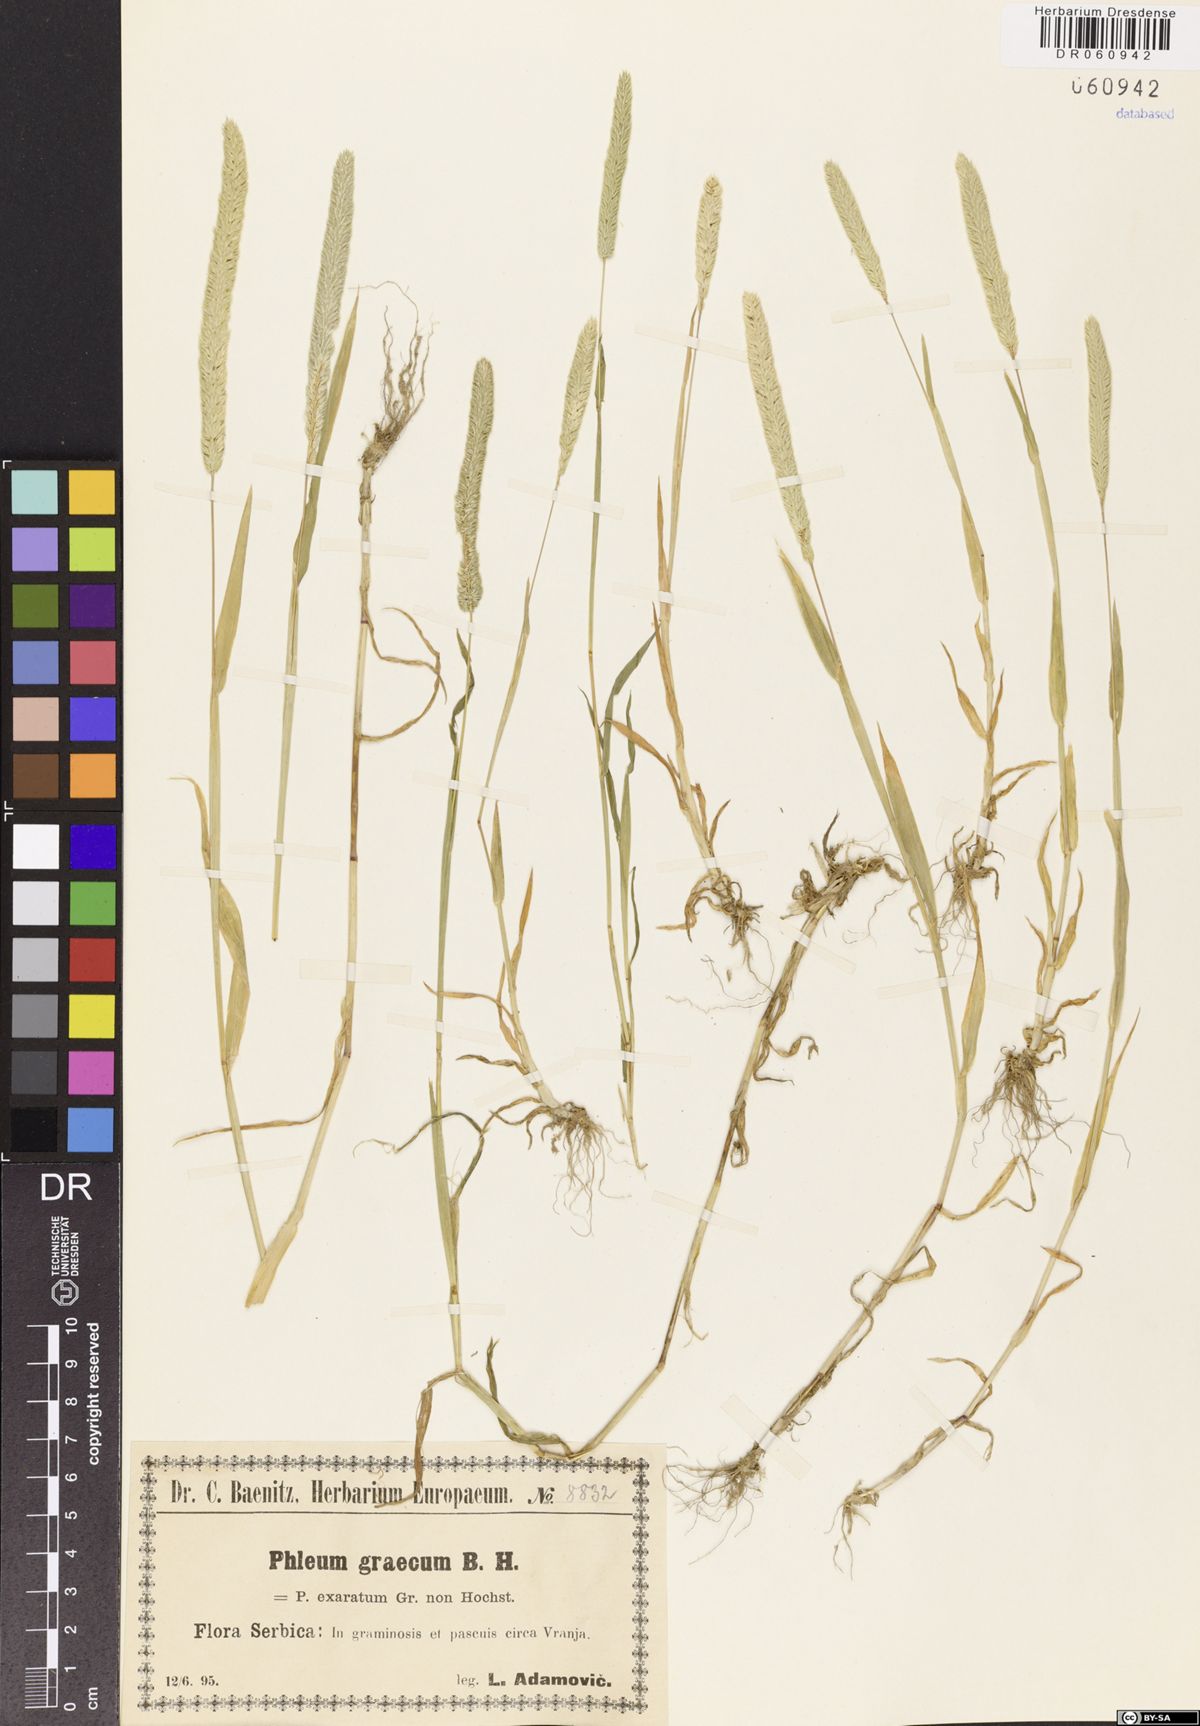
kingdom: Plantae
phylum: Tracheophyta
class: Liliopsida
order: Poales
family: Poaceae
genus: Phleum
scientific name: Phleum exaratum
